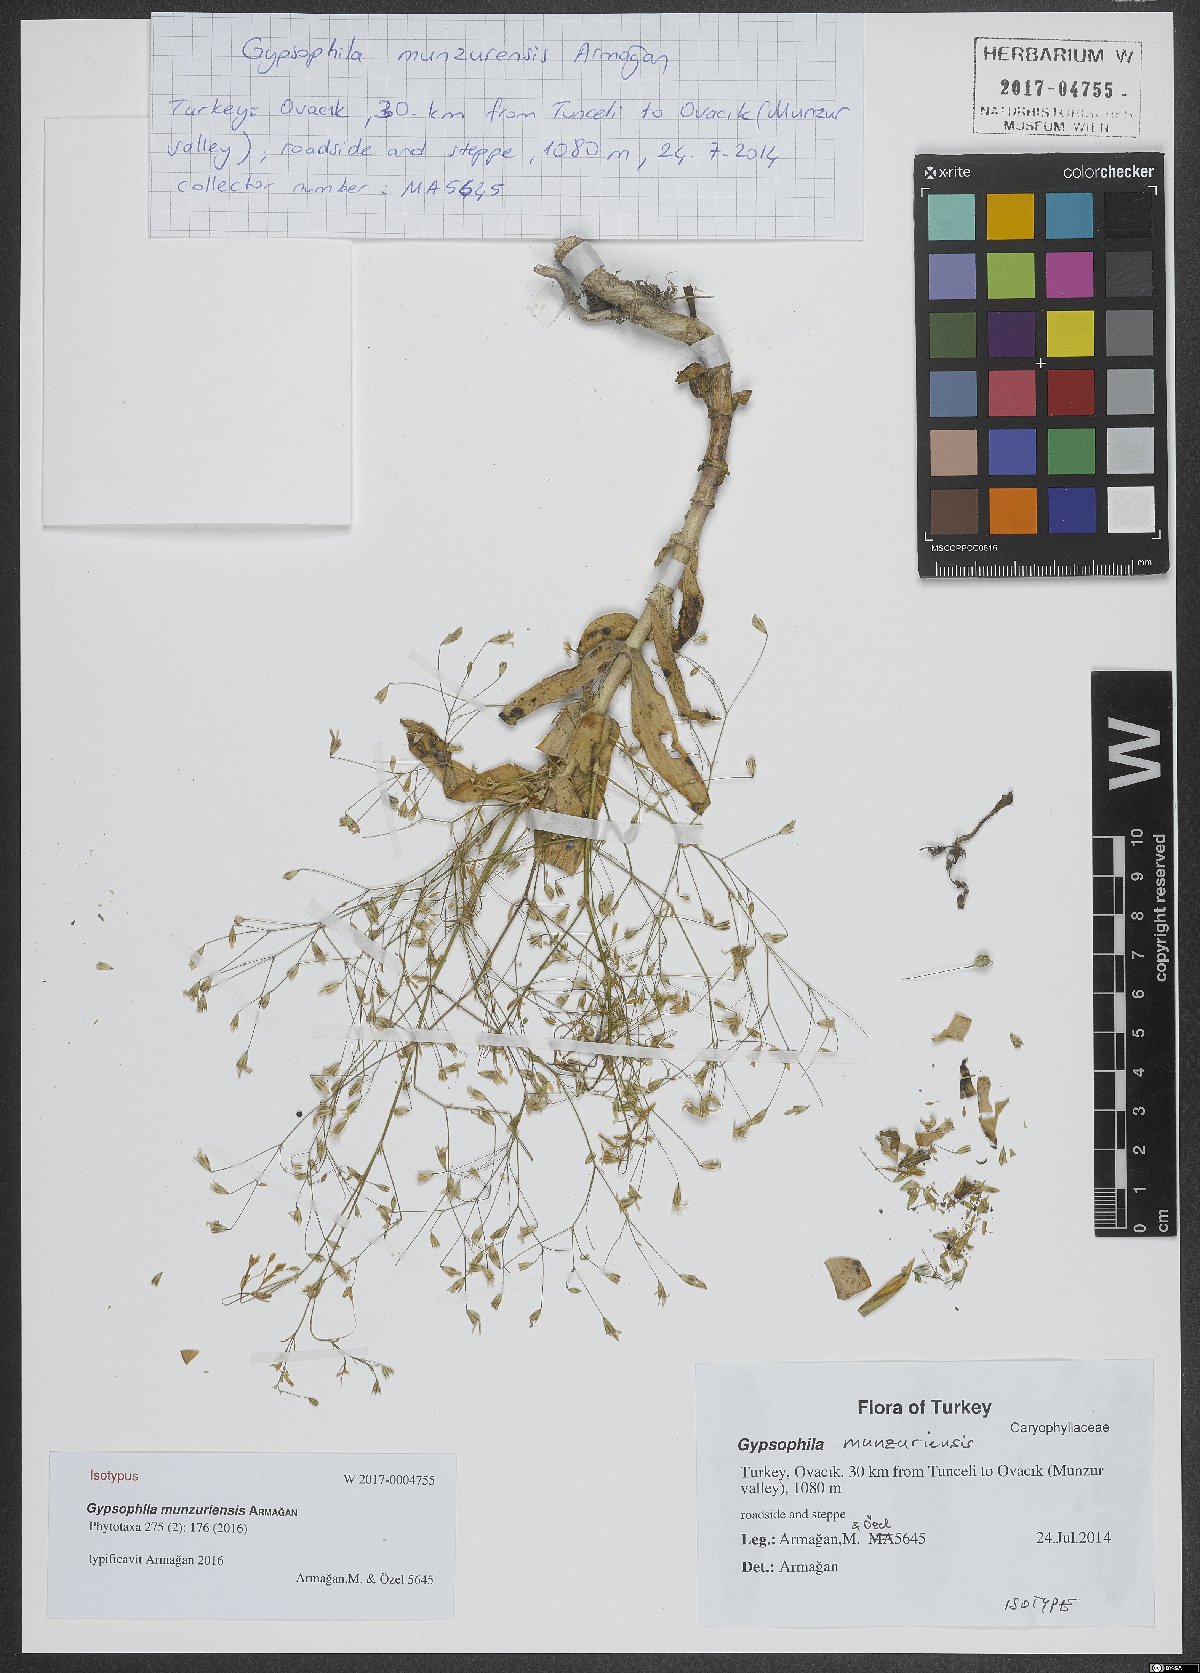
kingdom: Plantae
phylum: Tracheophyta
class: Magnoliopsida
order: Caryophyllales
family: Caryophyllaceae
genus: Gypsophila
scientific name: Gypsophila munzurensis
